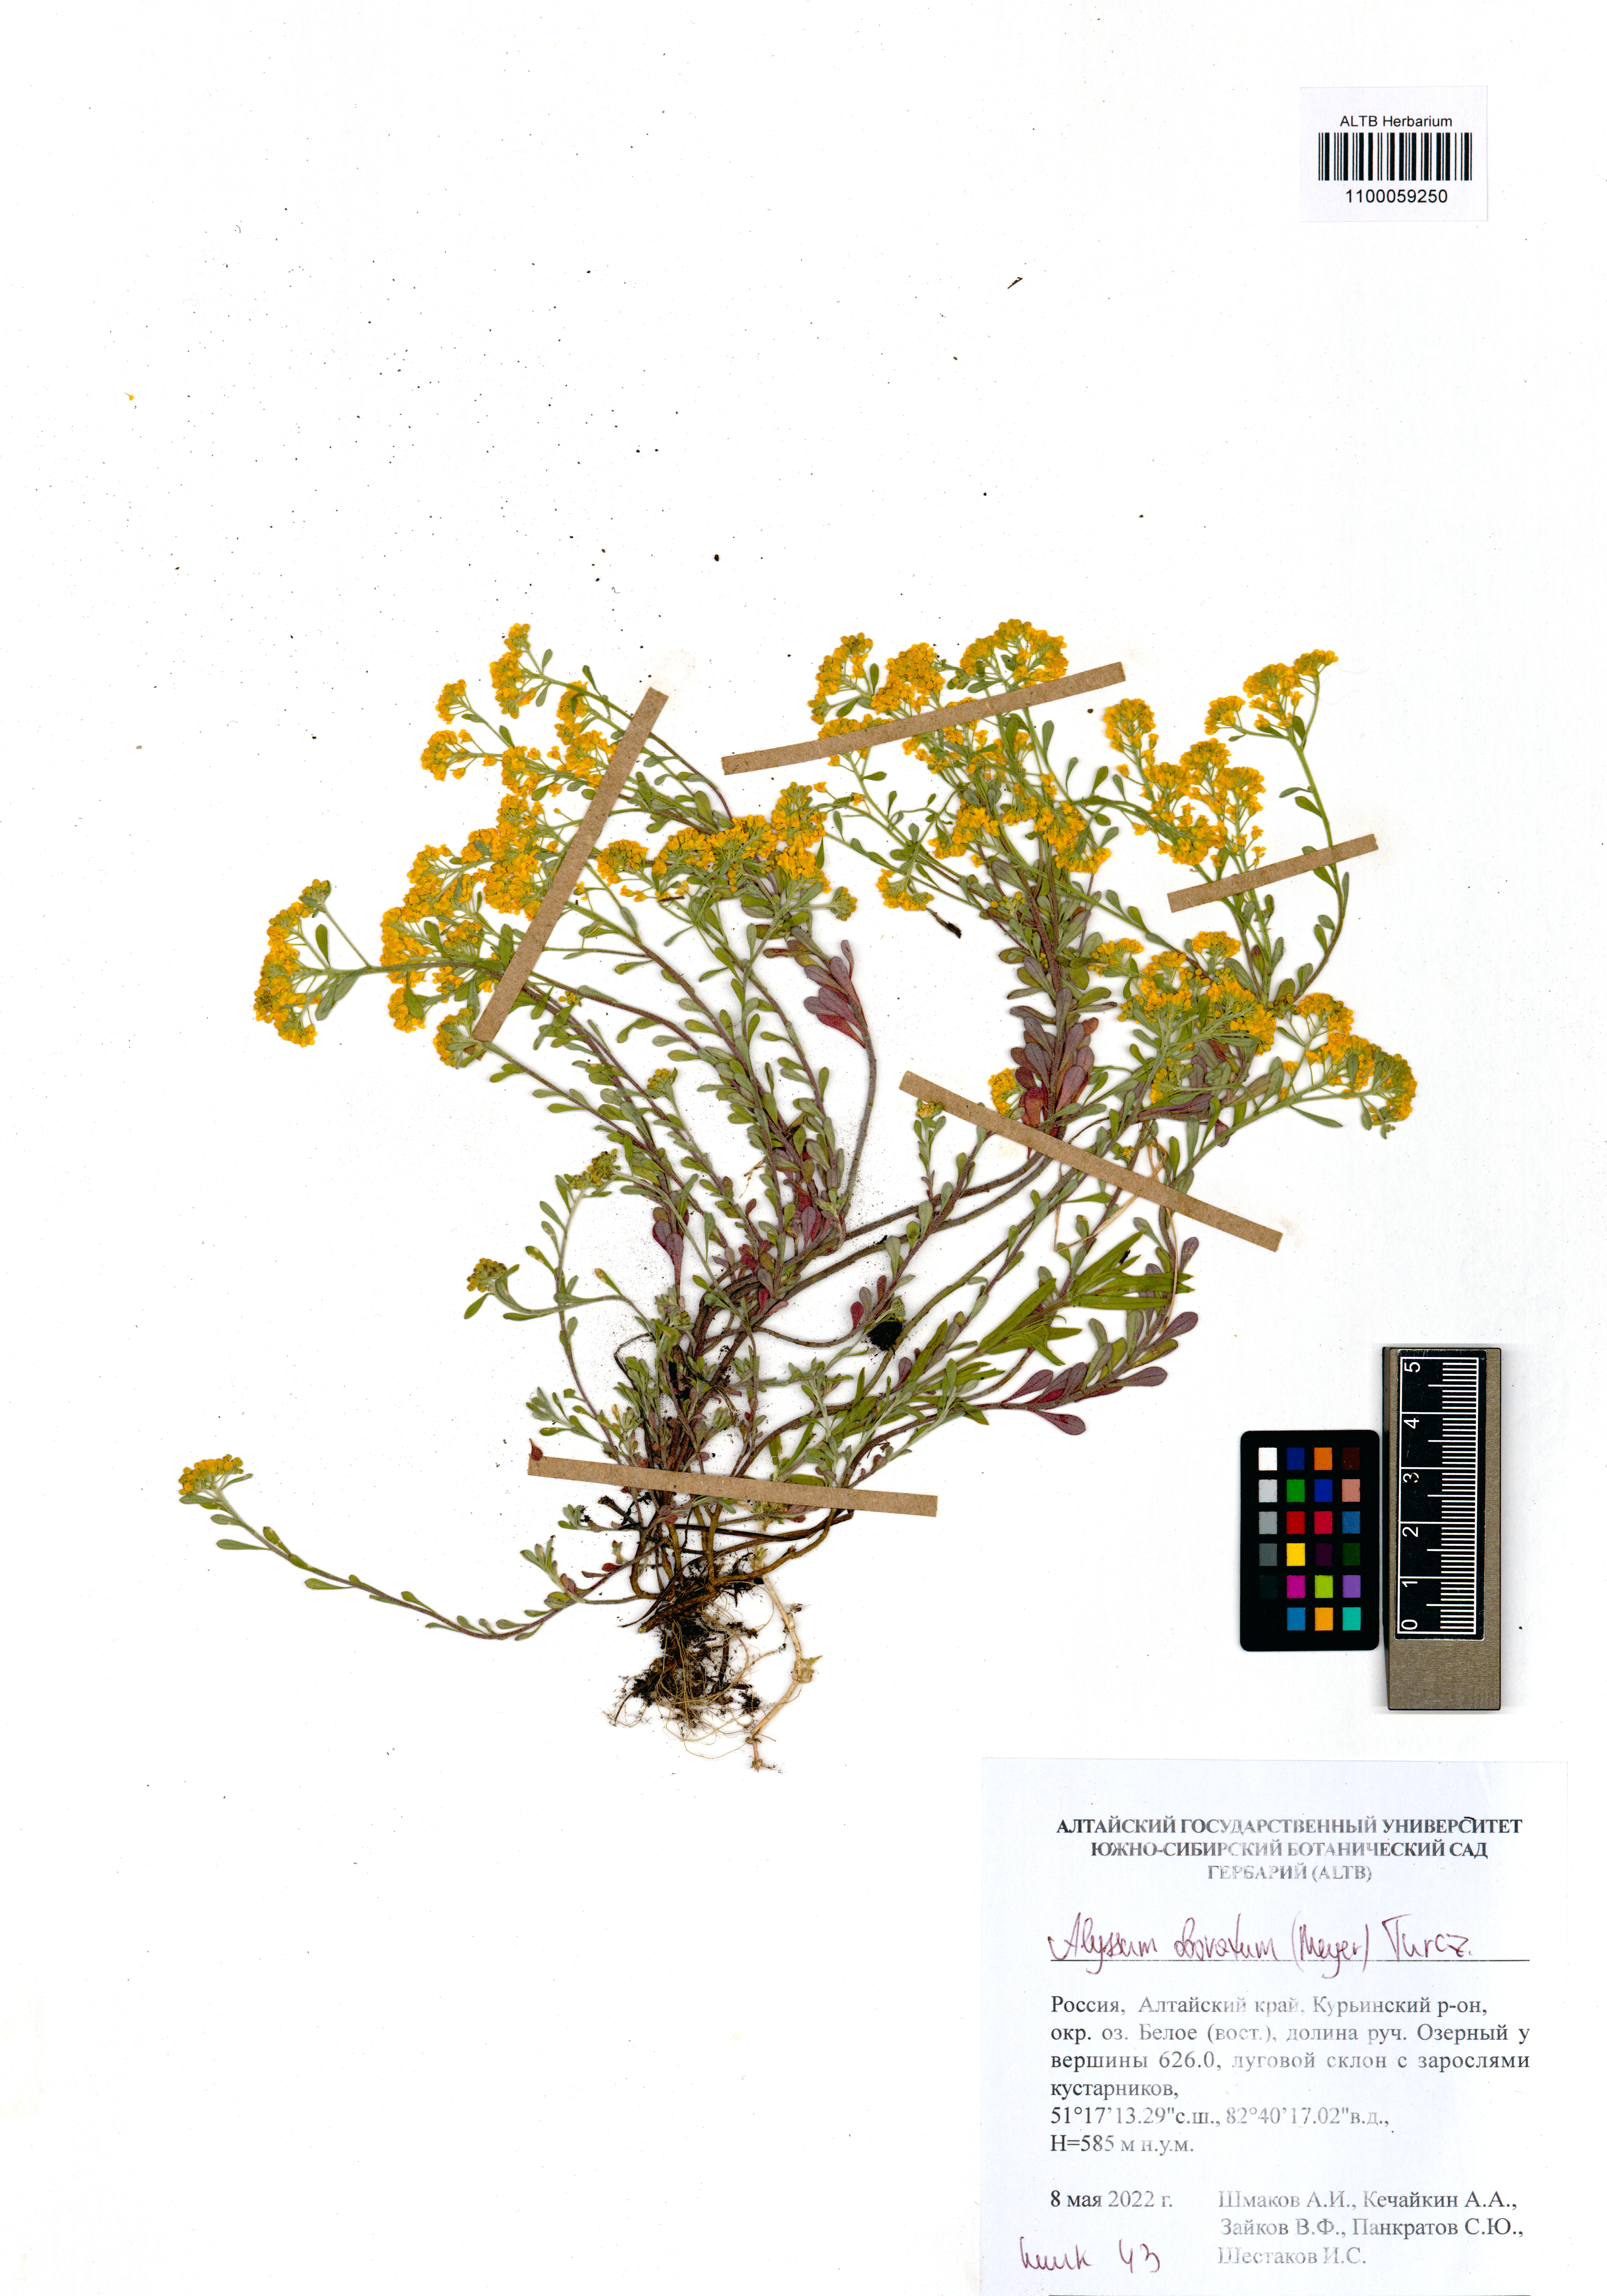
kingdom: Plantae
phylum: Tracheophyta
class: Magnoliopsida
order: Brassicales
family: Brassicaceae
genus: Odontarrhena
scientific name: Odontarrhena obovata
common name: American alyssum
